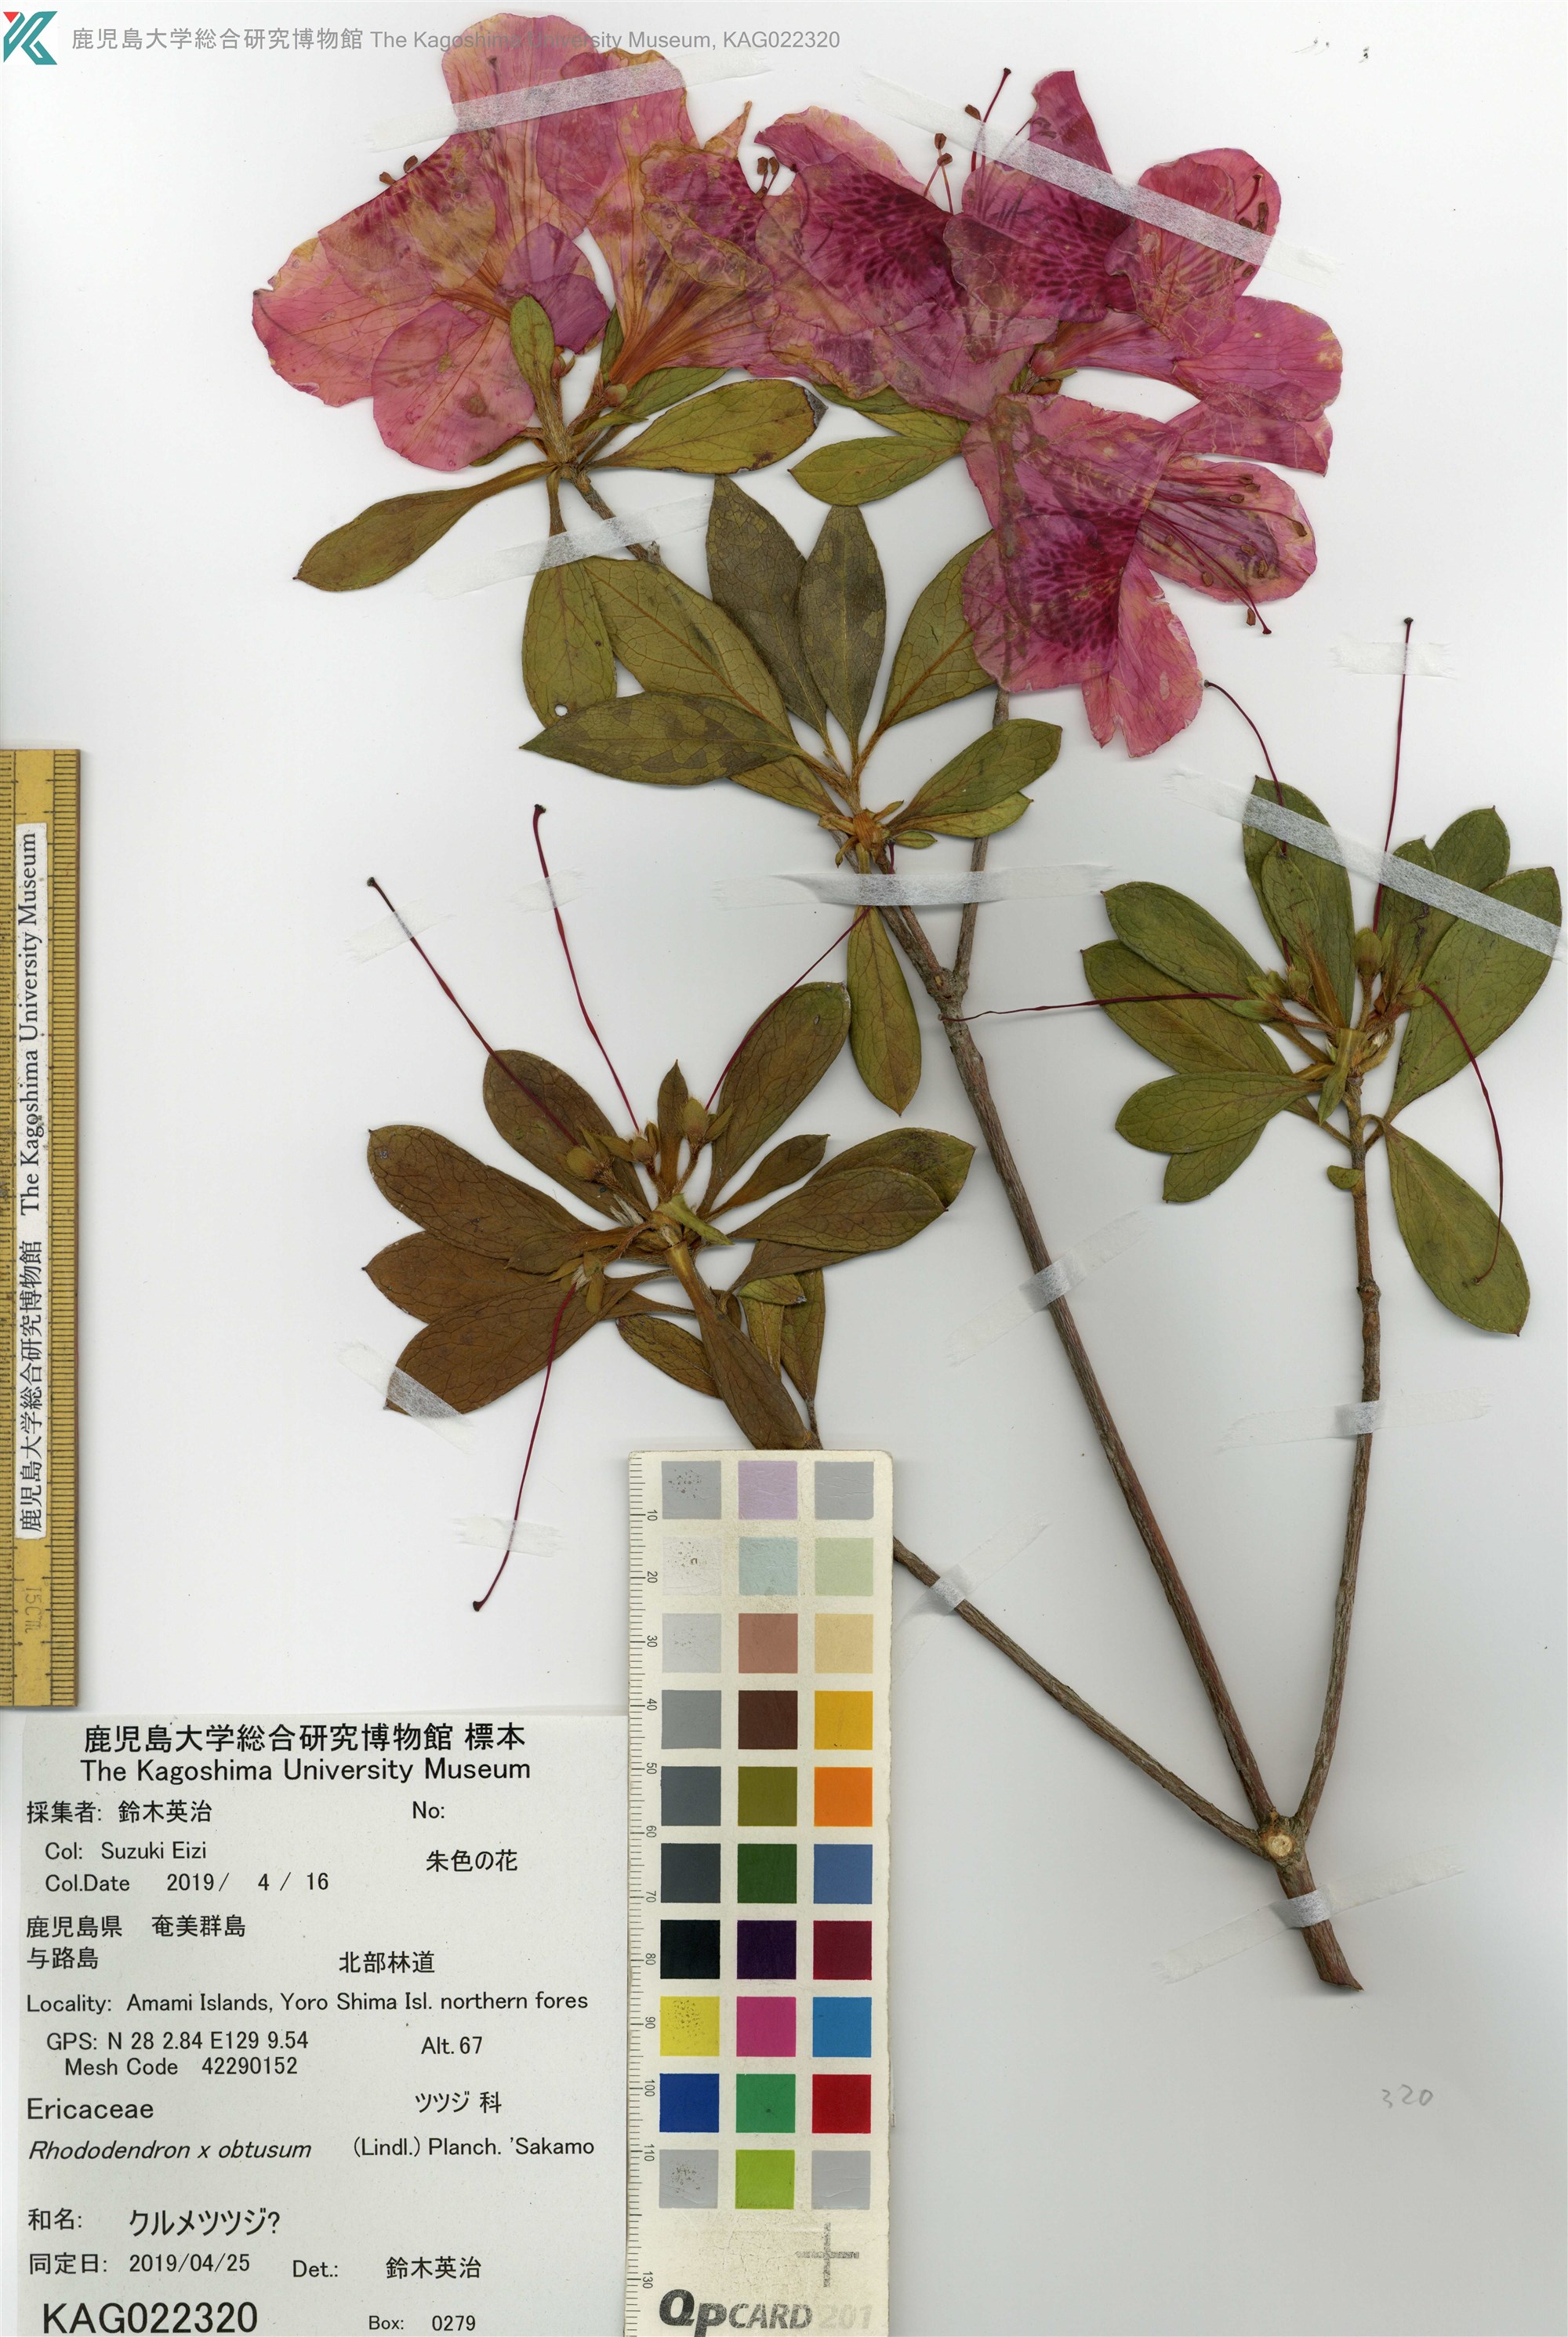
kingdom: Plantae
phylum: Tracheophyta
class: Magnoliopsida
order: Ericales
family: Ericaceae
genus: Rhododendron
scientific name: Rhododendron
